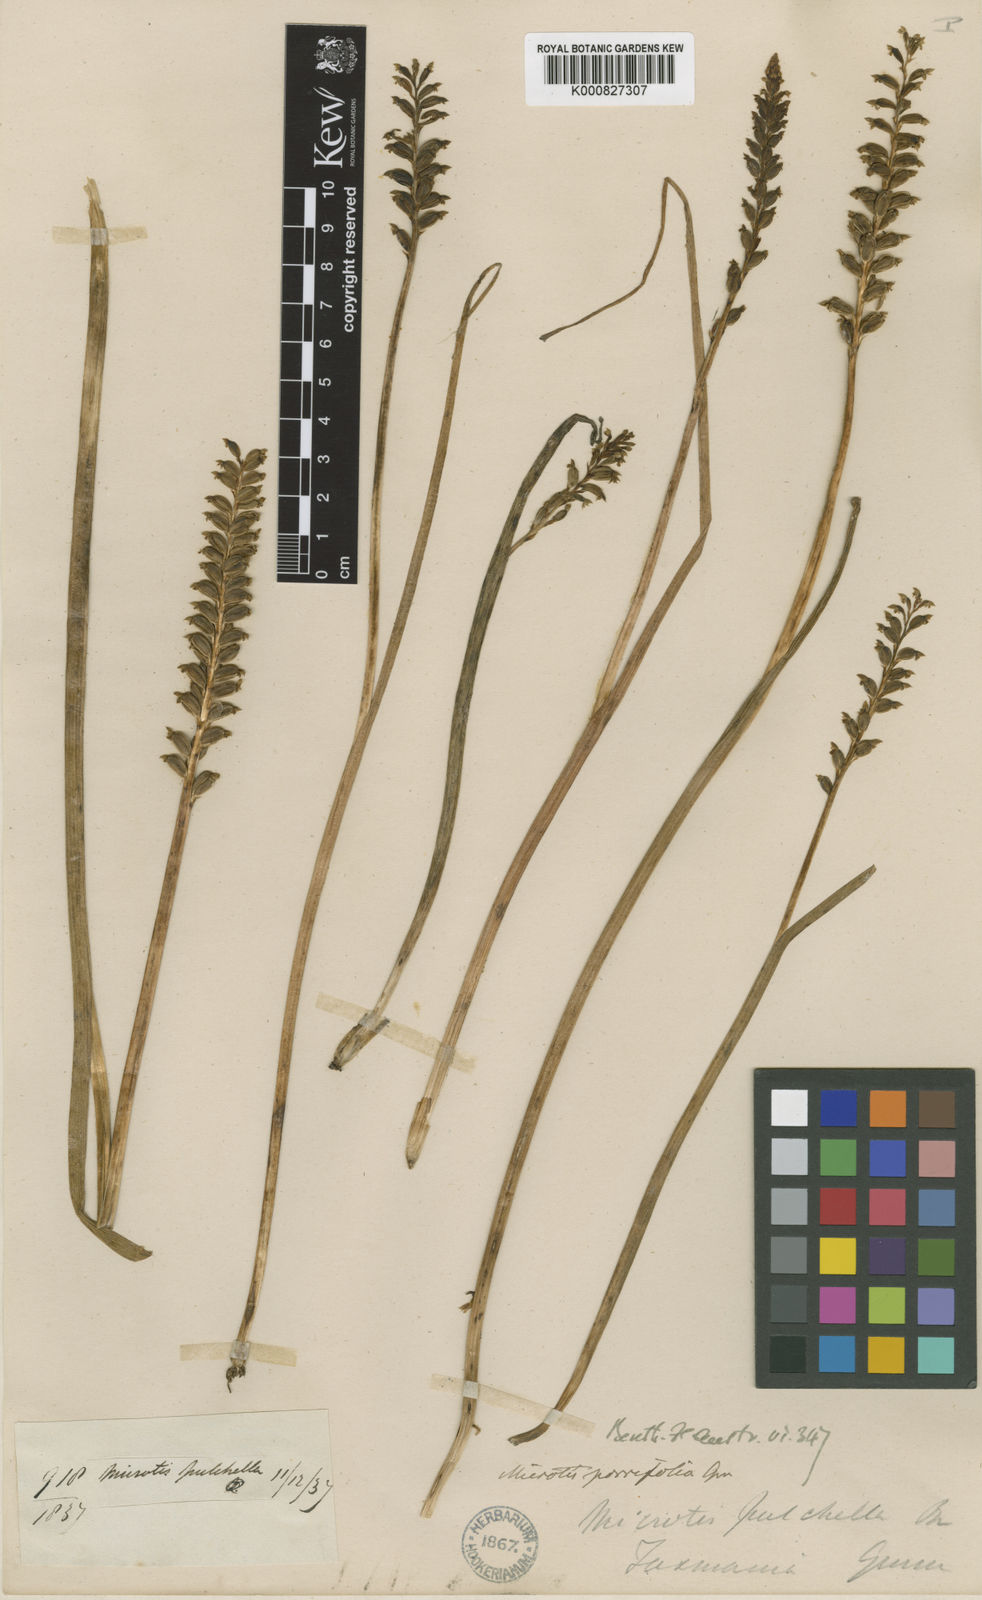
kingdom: Plantae
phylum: Tracheophyta
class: Liliopsida
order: Asparagales
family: Orchidaceae
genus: Microtis
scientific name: Microtis unifolia
